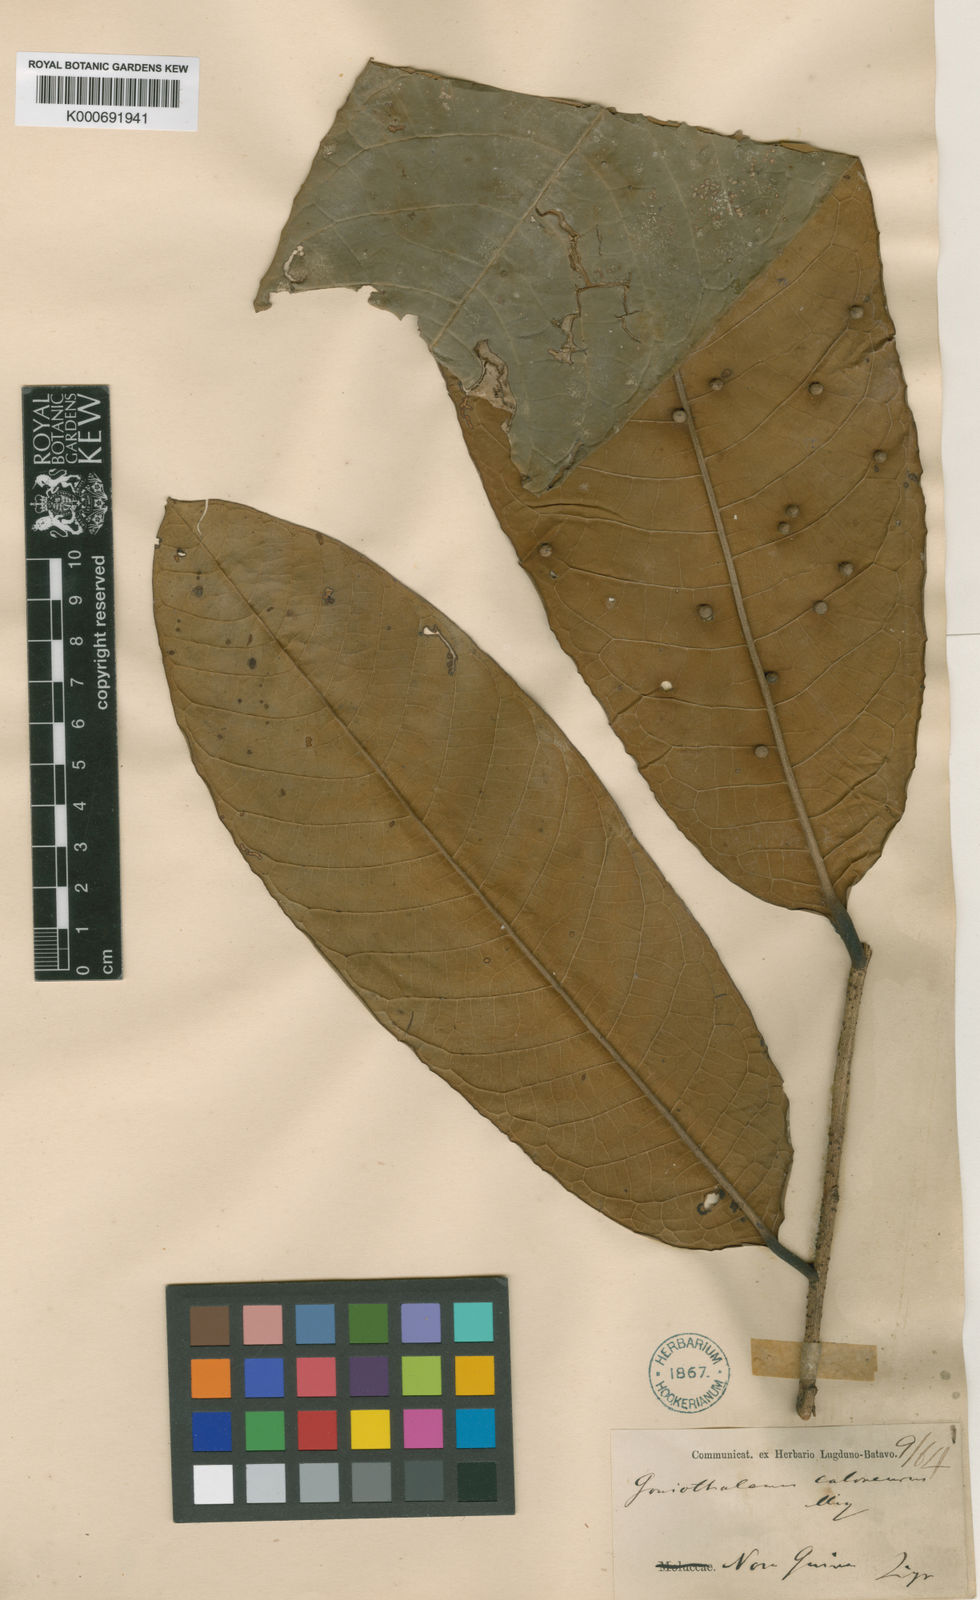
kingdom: Plantae
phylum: Tracheophyta
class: Magnoliopsida
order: Magnoliales
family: Annonaceae
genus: Goniothalamus
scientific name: Goniothalamus caloneurus
